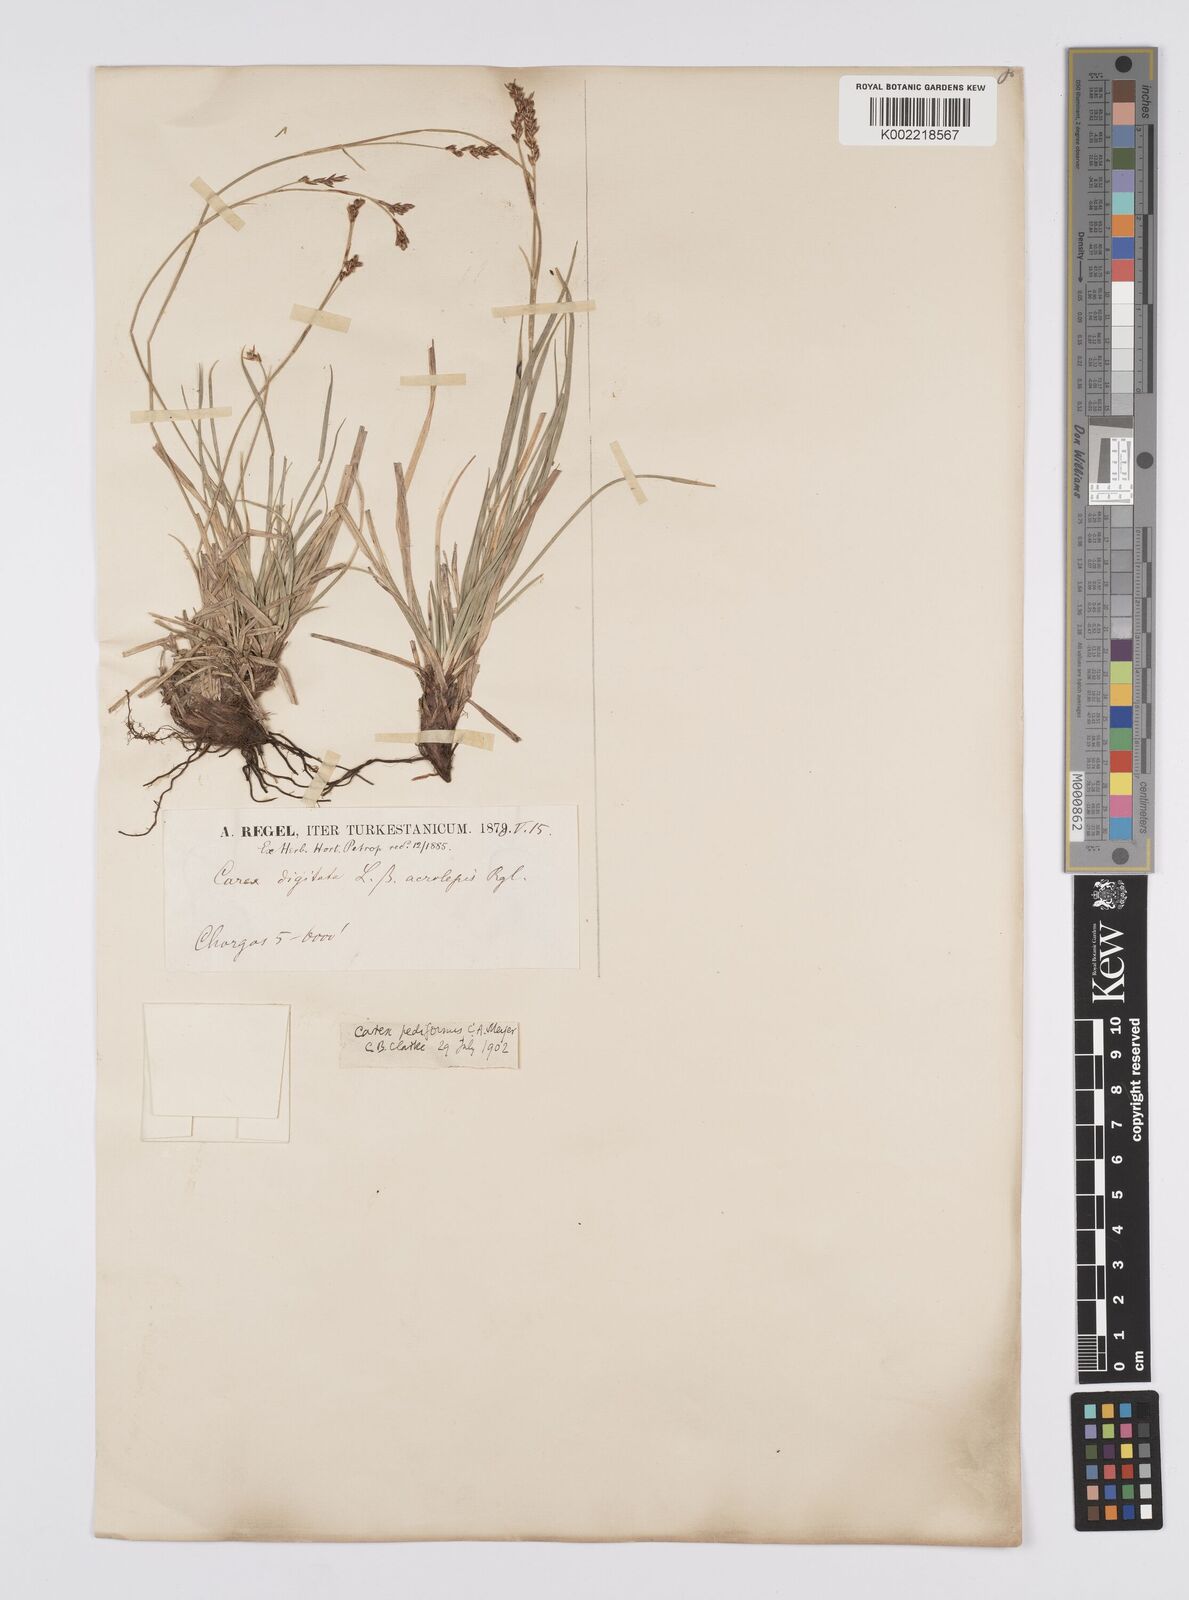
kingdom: Plantae
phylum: Tracheophyta
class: Liliopsida
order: Poales
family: Cyperaceae
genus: Carex
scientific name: Carex pediformis
